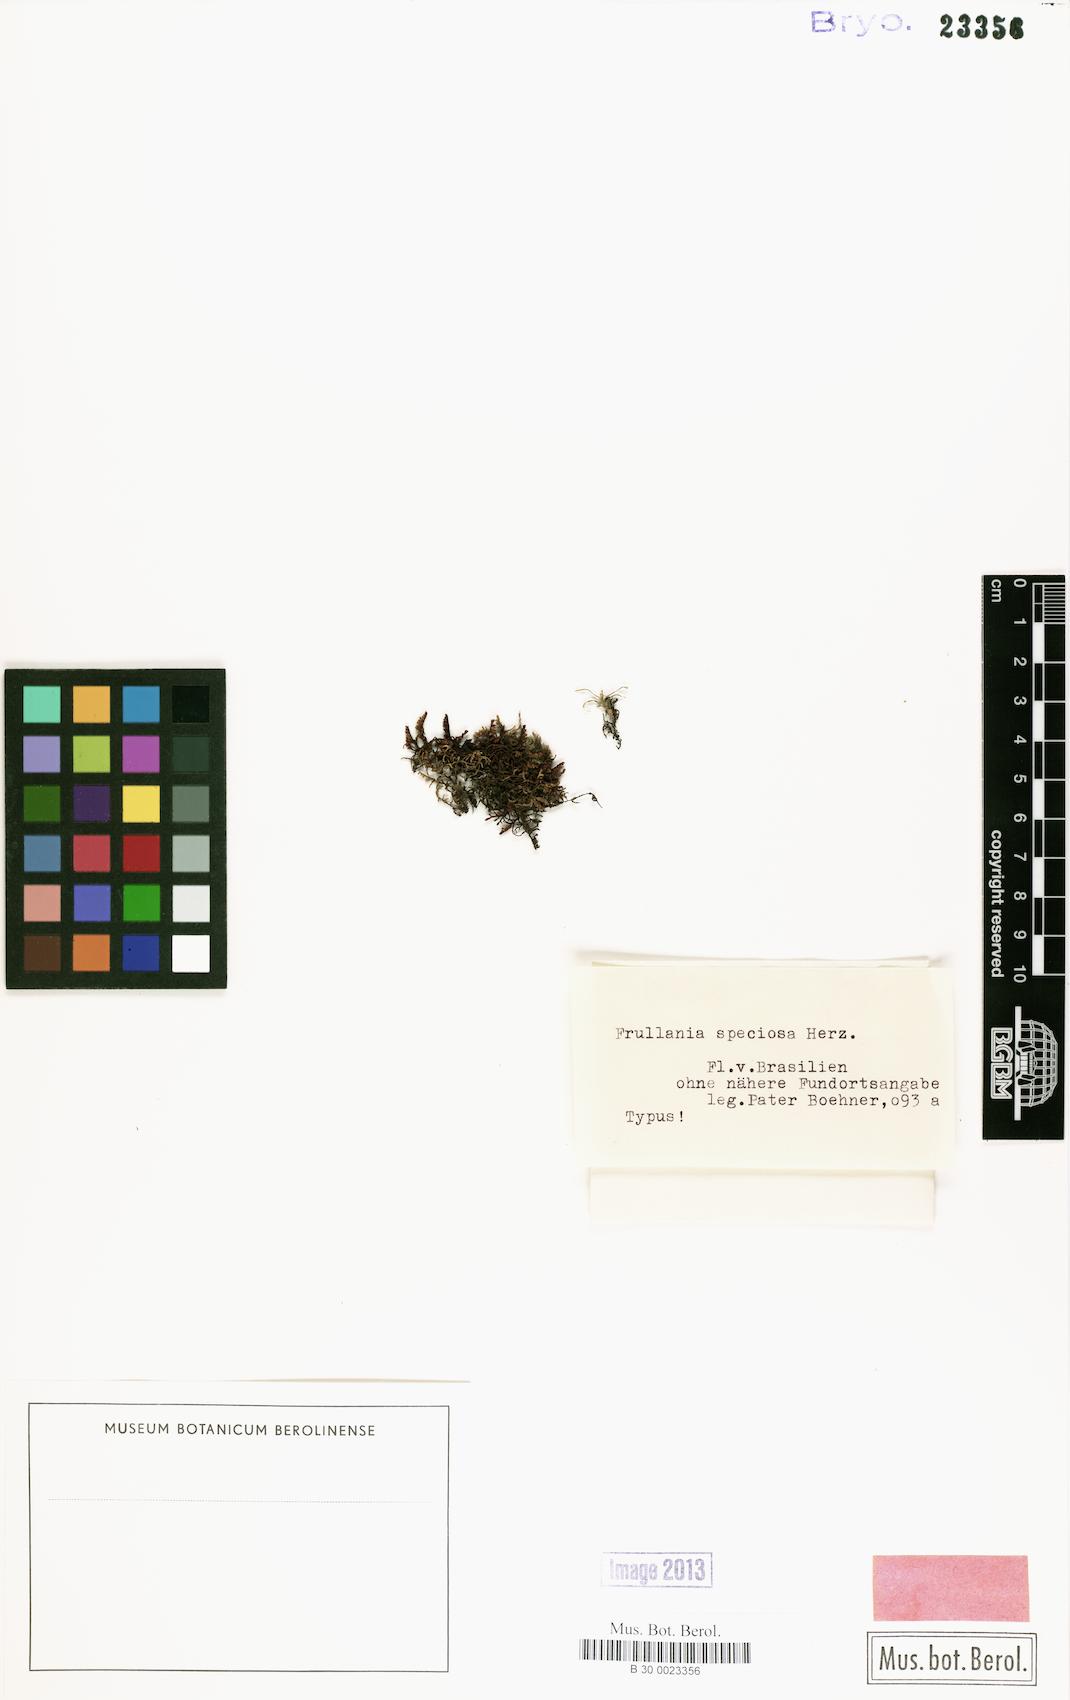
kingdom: Plantae
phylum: Marchantiophyta
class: Jungermanniopsida
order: Porellales
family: Frullaniaceae
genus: Frullania
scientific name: Frullania speciosa
